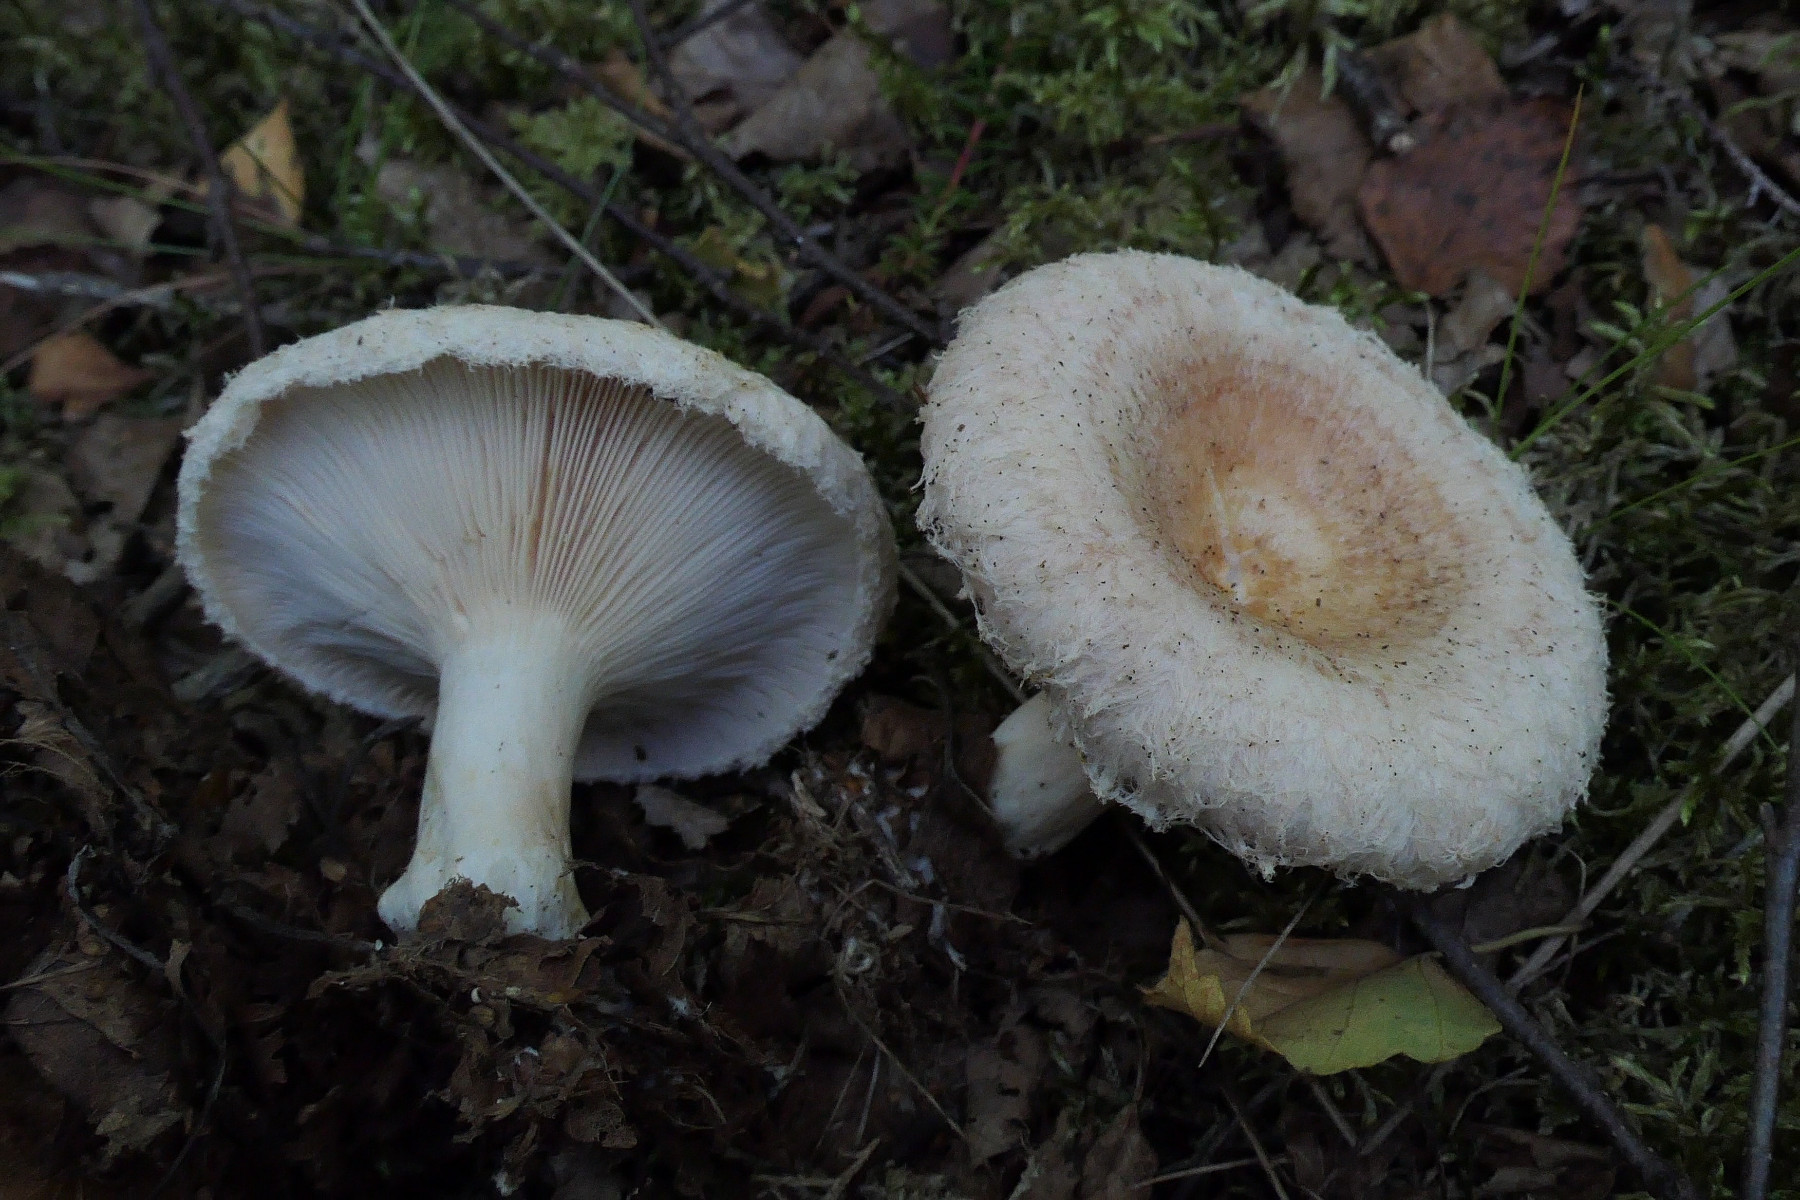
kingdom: Fungi
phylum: Basidiomycota
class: Agaricomycetes
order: Russulales
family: Russulaceae
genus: Lactarius
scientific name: Lactarius pubescens
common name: dunet mælkehat
